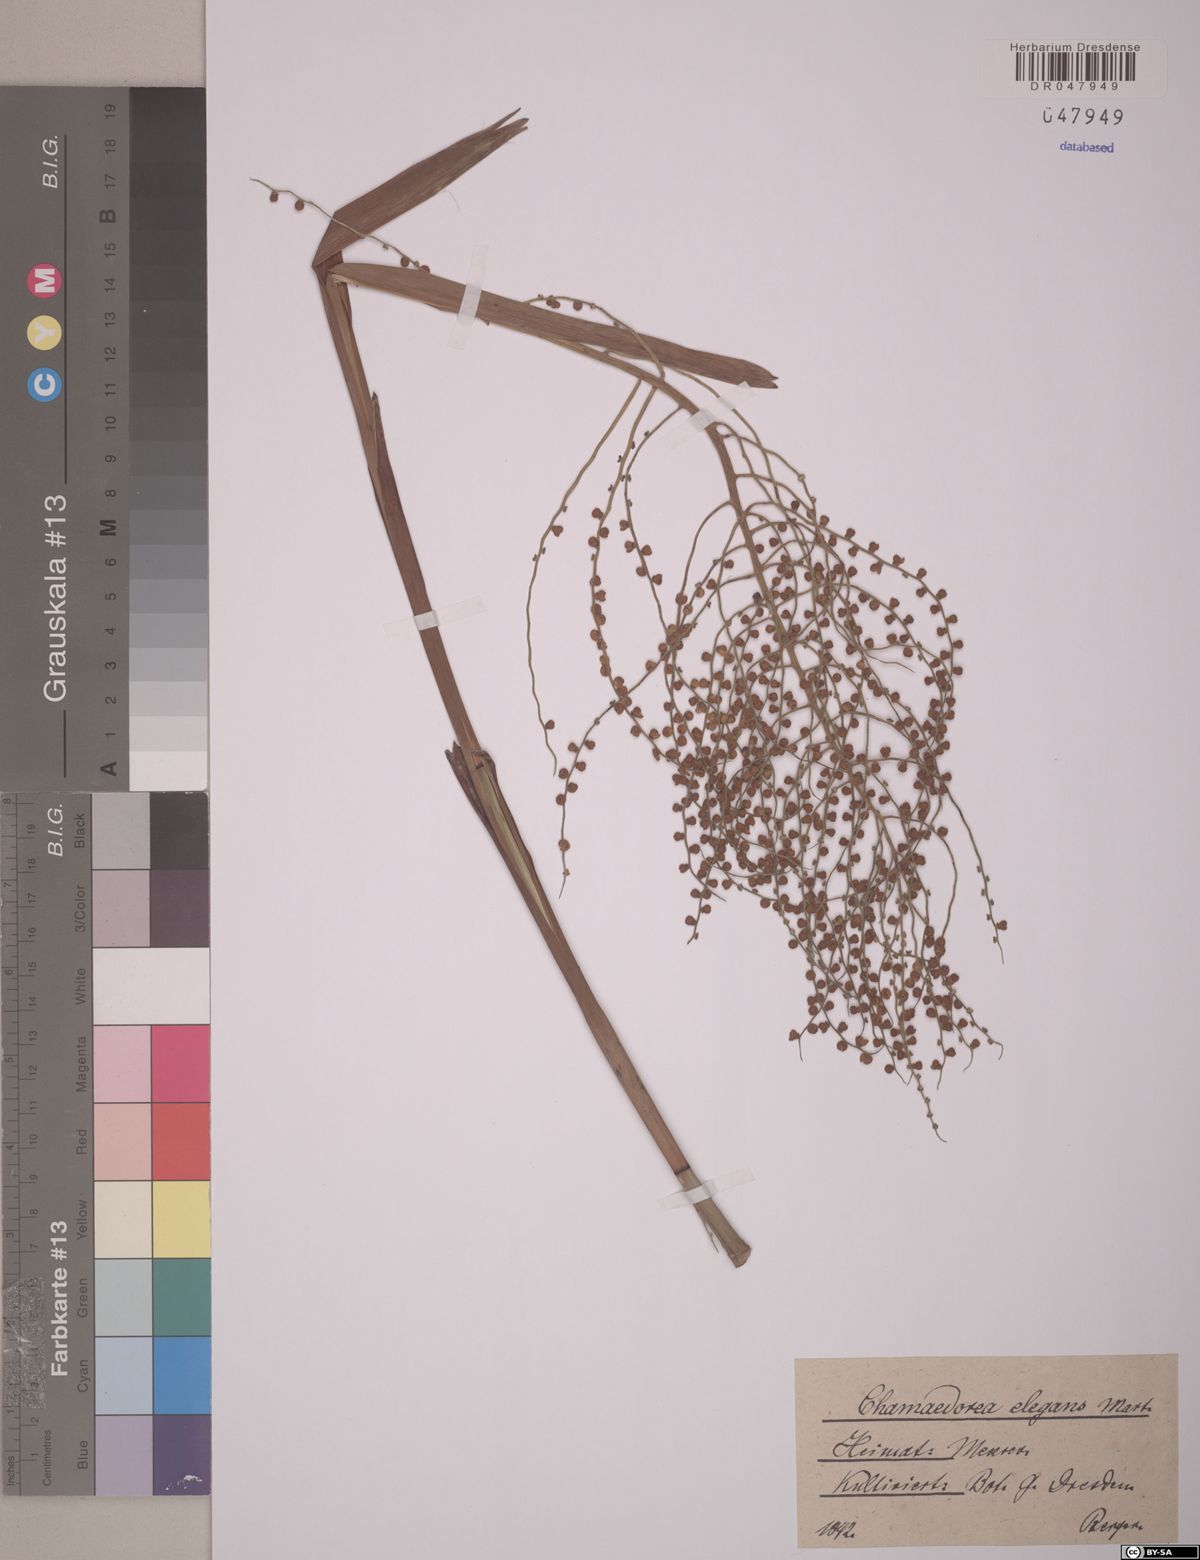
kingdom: Plantae
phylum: Tracheophyta
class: Liliopsida
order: Arecales
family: Arecaceae
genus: Chamaedorea
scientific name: Chamaedorea elegans
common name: Good-luck palm
